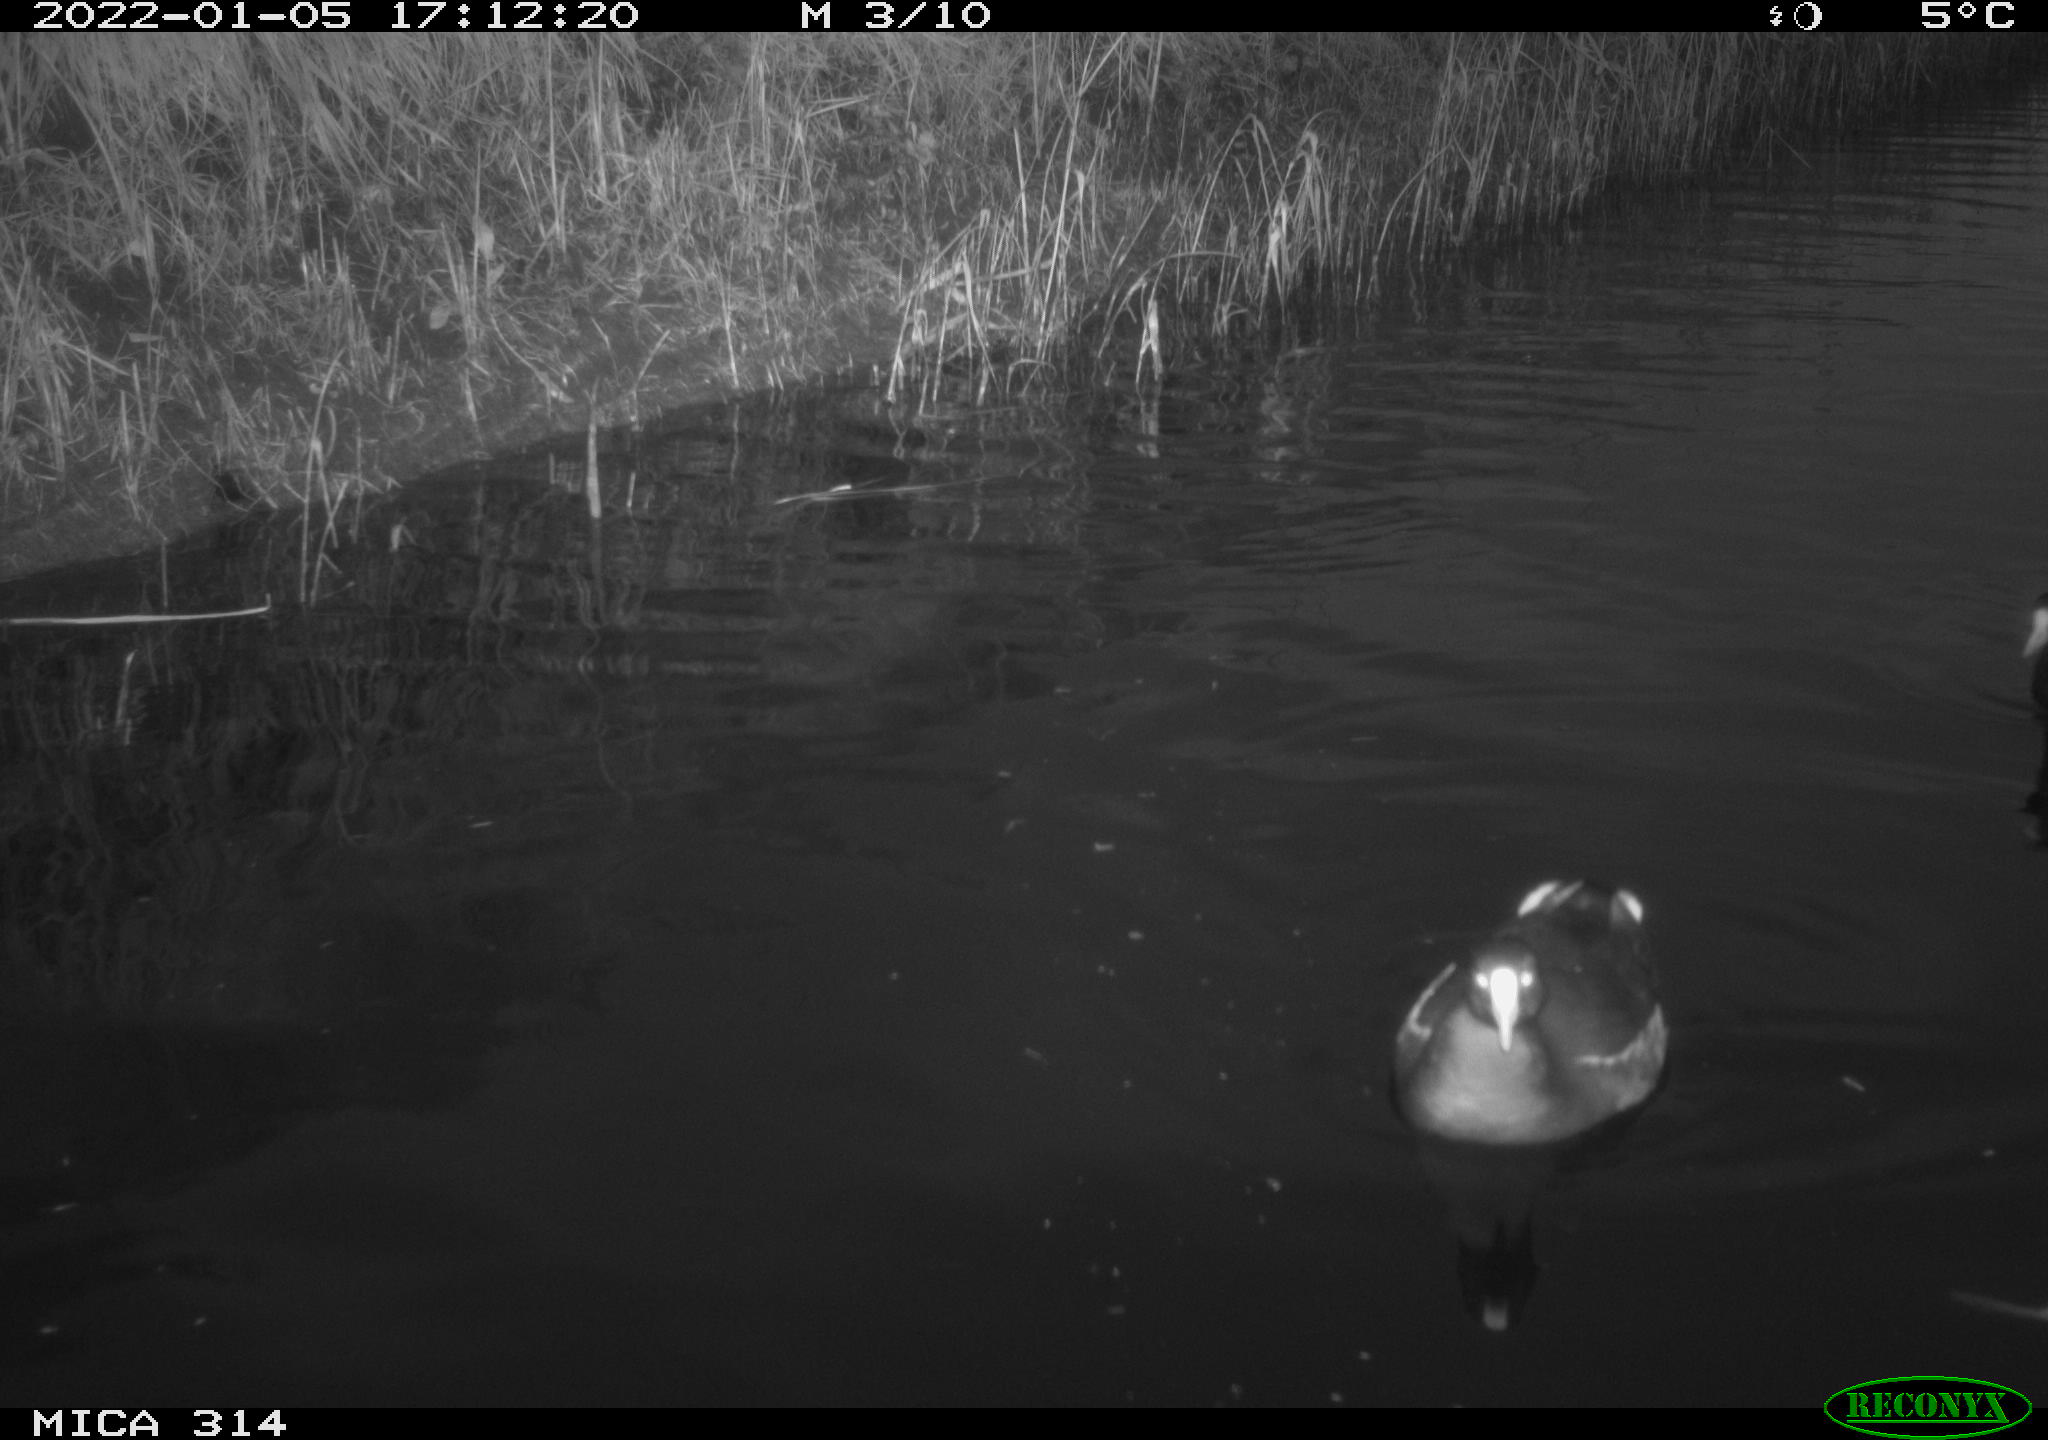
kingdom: Animalia
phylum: Chordata
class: Aves
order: Anseriformes
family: Anatidae
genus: Anas
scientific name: Anas
